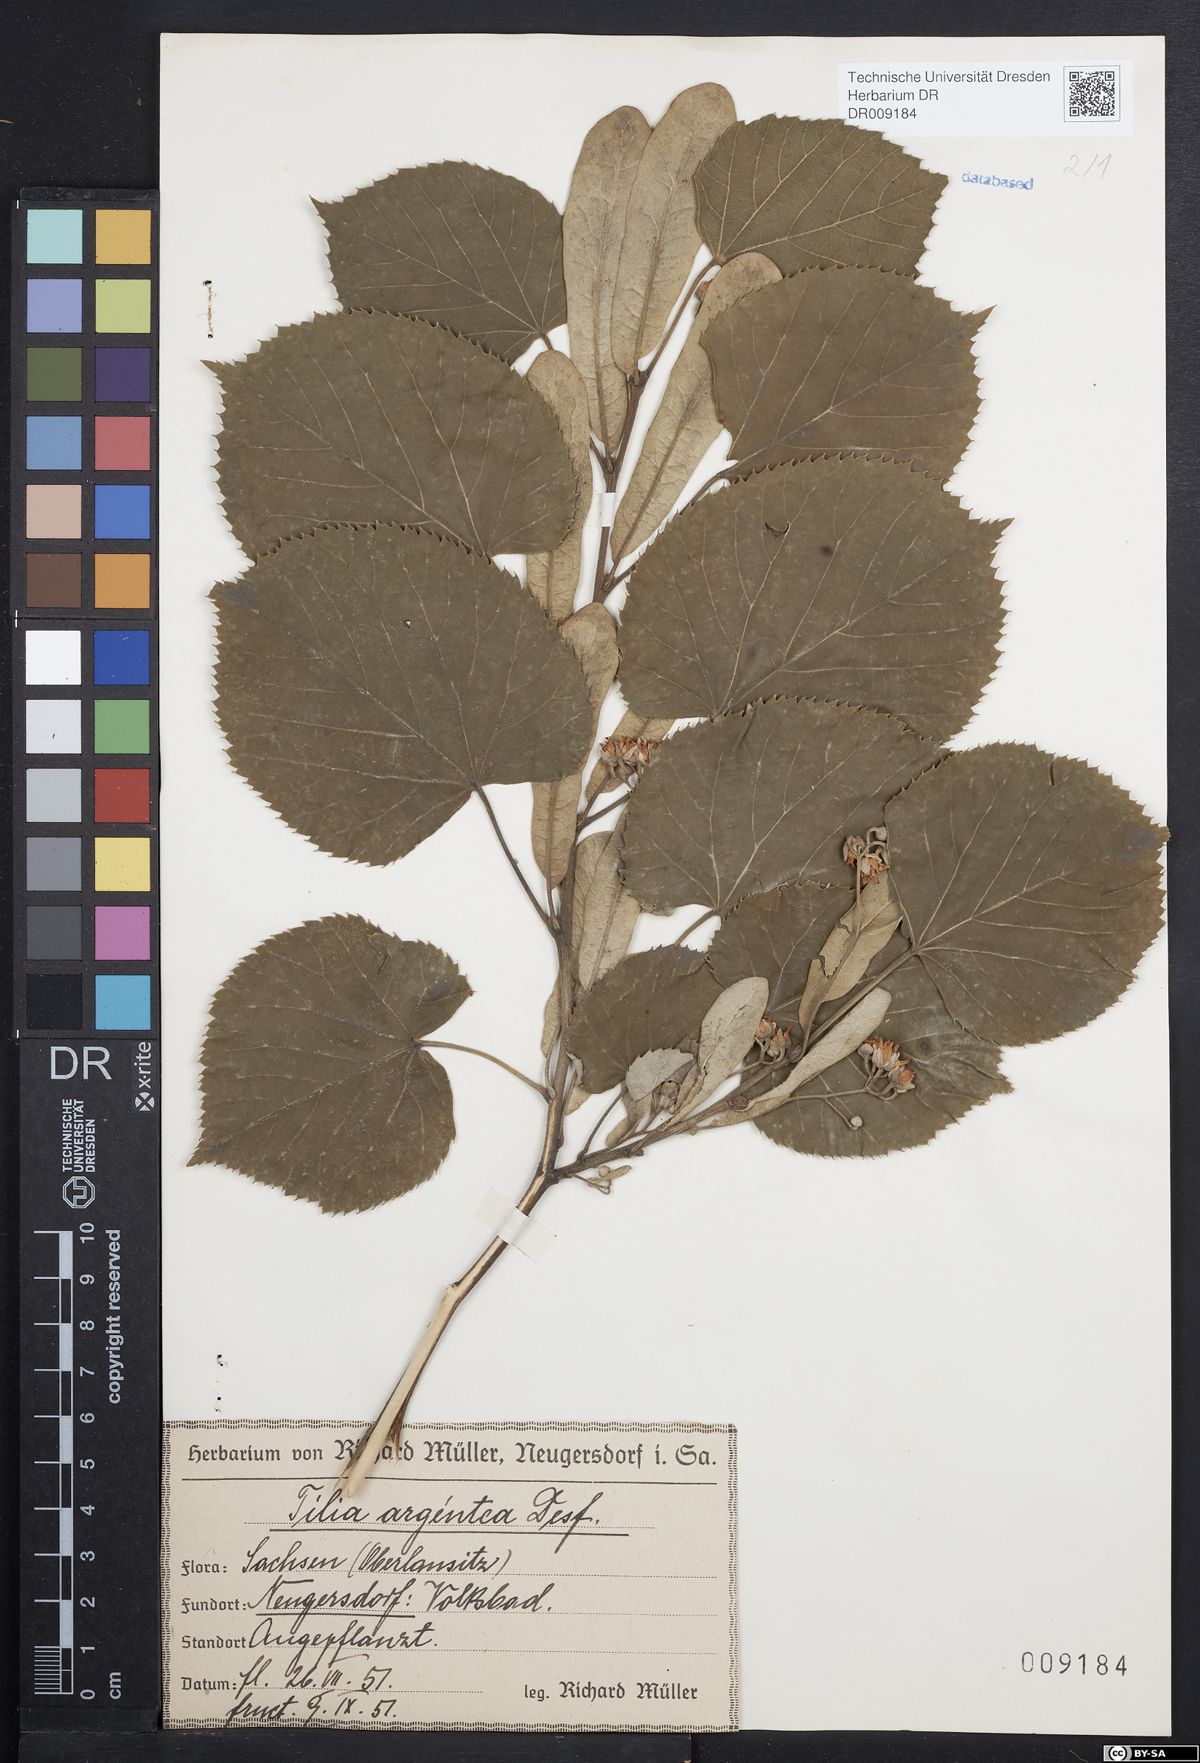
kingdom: Plantae
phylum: Tracheophyta
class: Magnoliopsida
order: Malvales
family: Malvaceae
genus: Tilia
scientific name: Tilia tomentosa
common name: Silver lime
